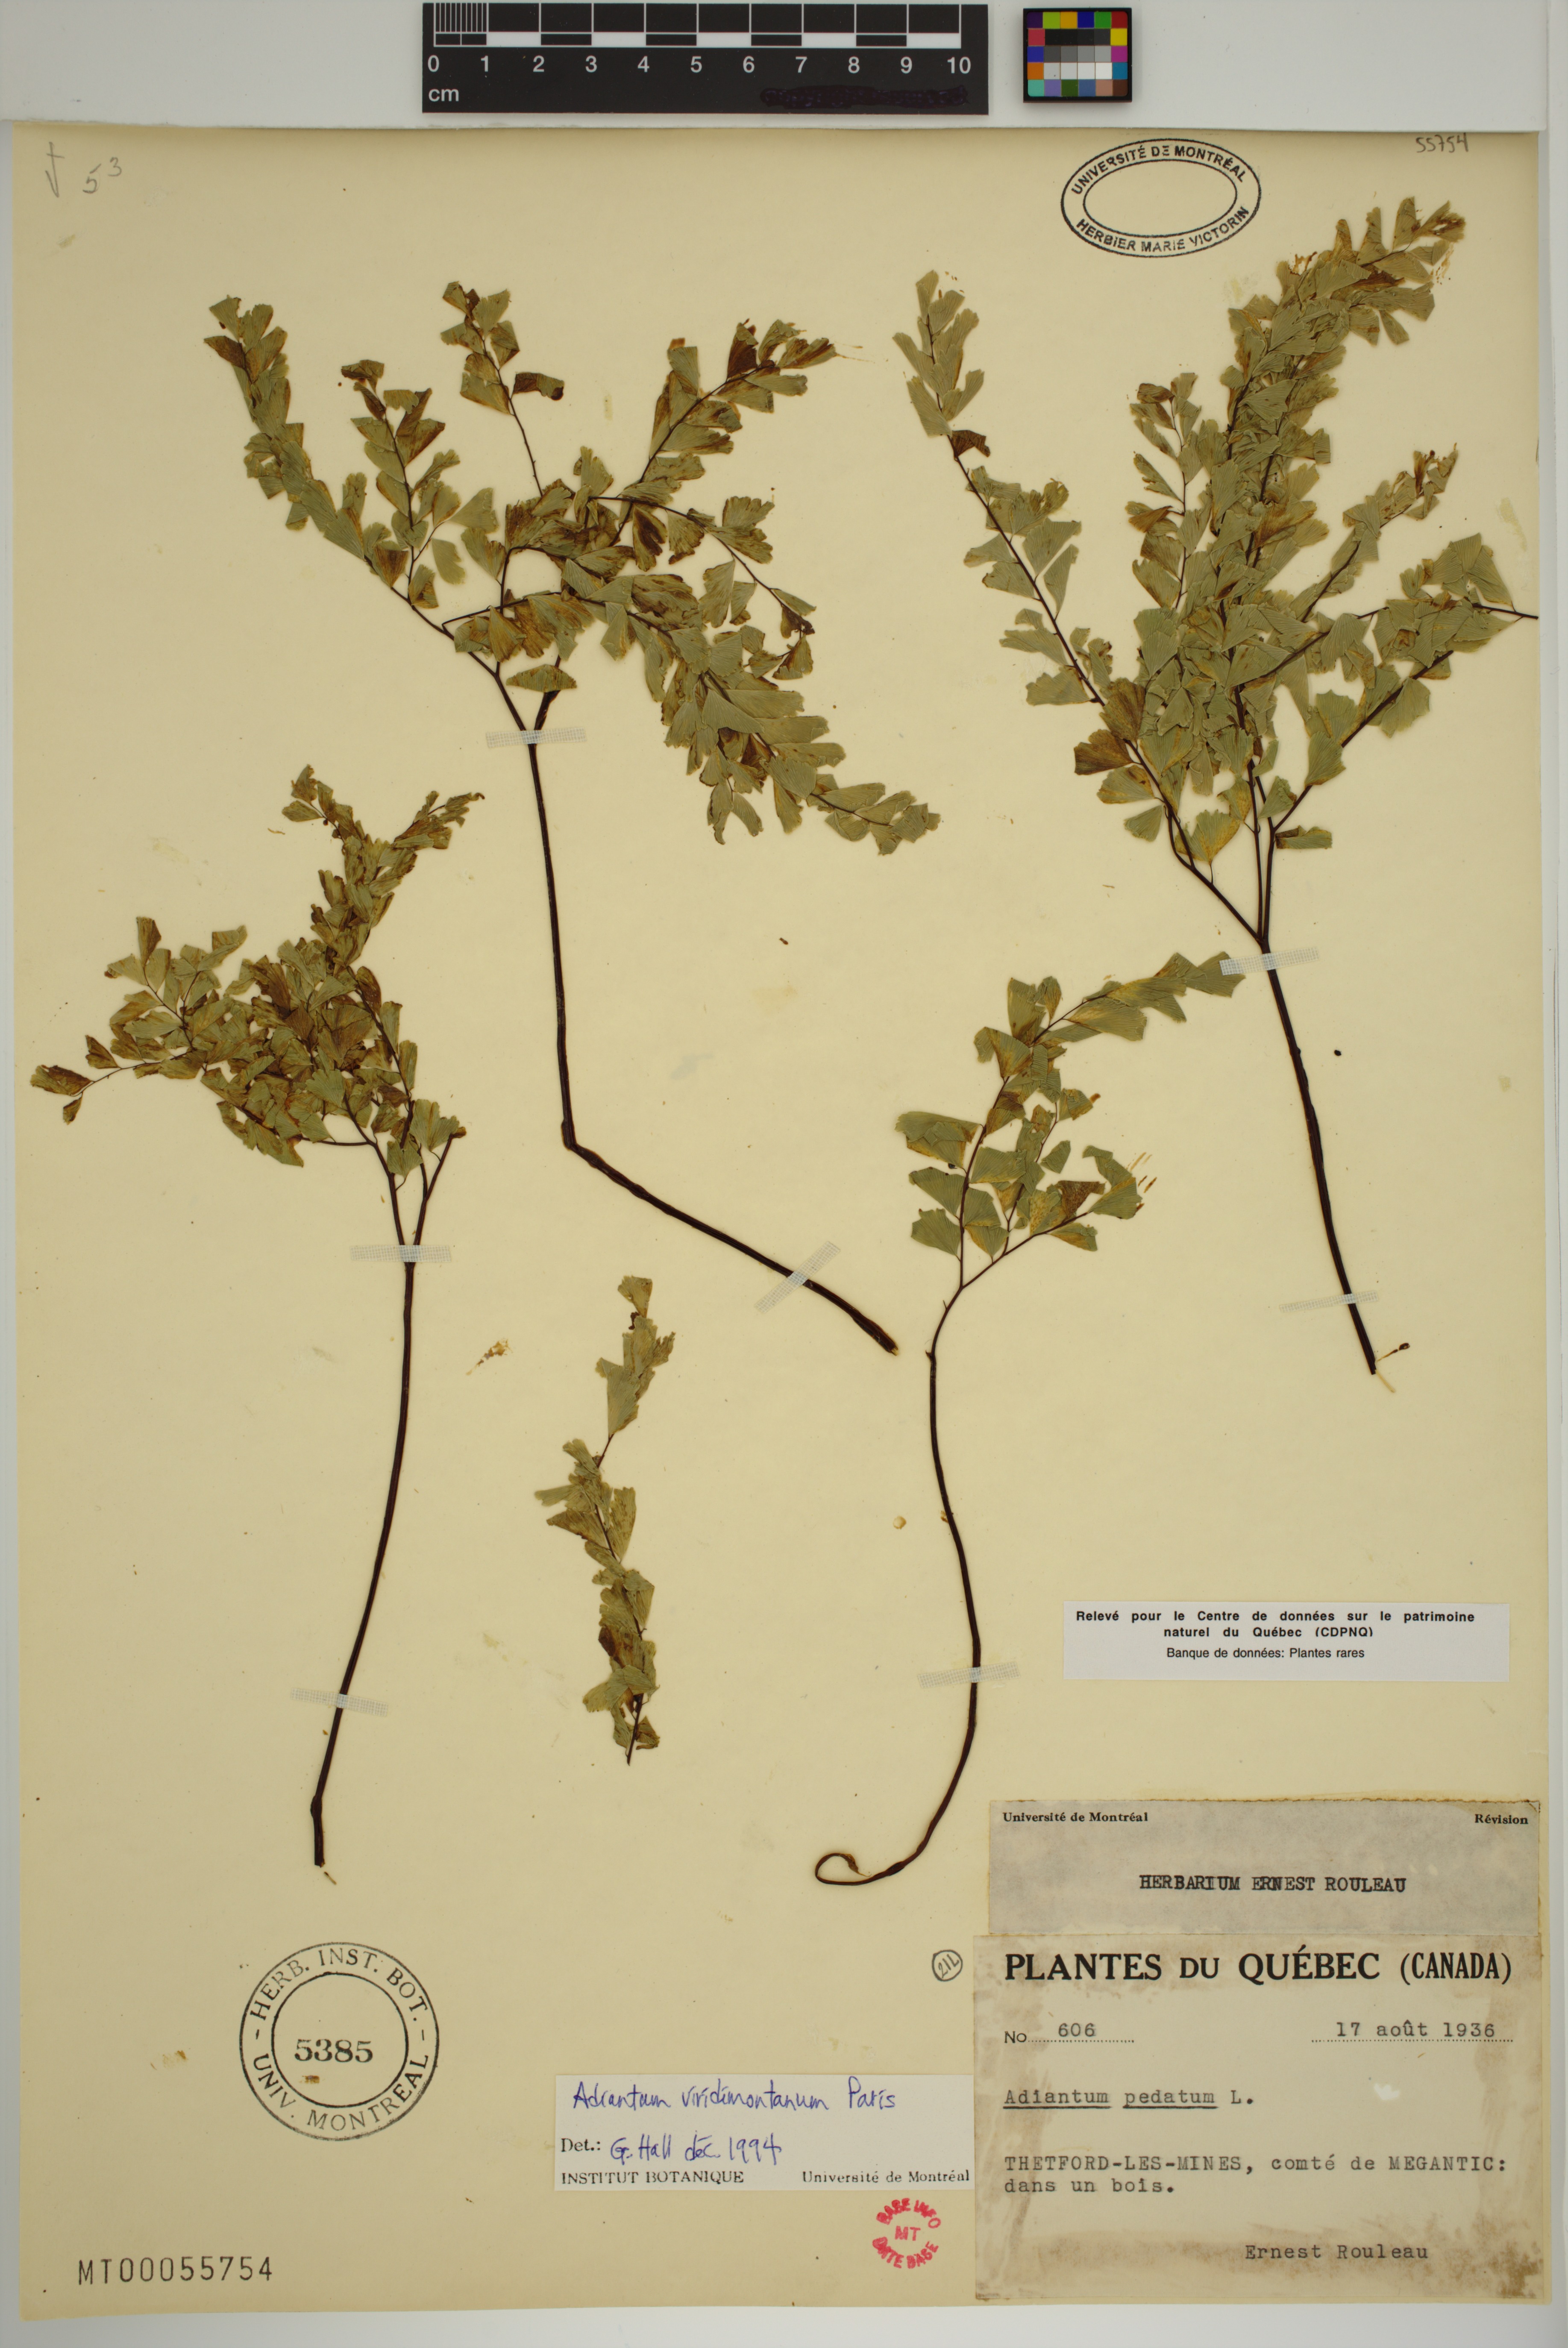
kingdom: Plantae
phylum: Tracheophyta
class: Polypodiopsida
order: Polypodiales
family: Pteridaceae
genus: Adiantum
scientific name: Adiantum viridimontanum
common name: Green mountain maidenhair
